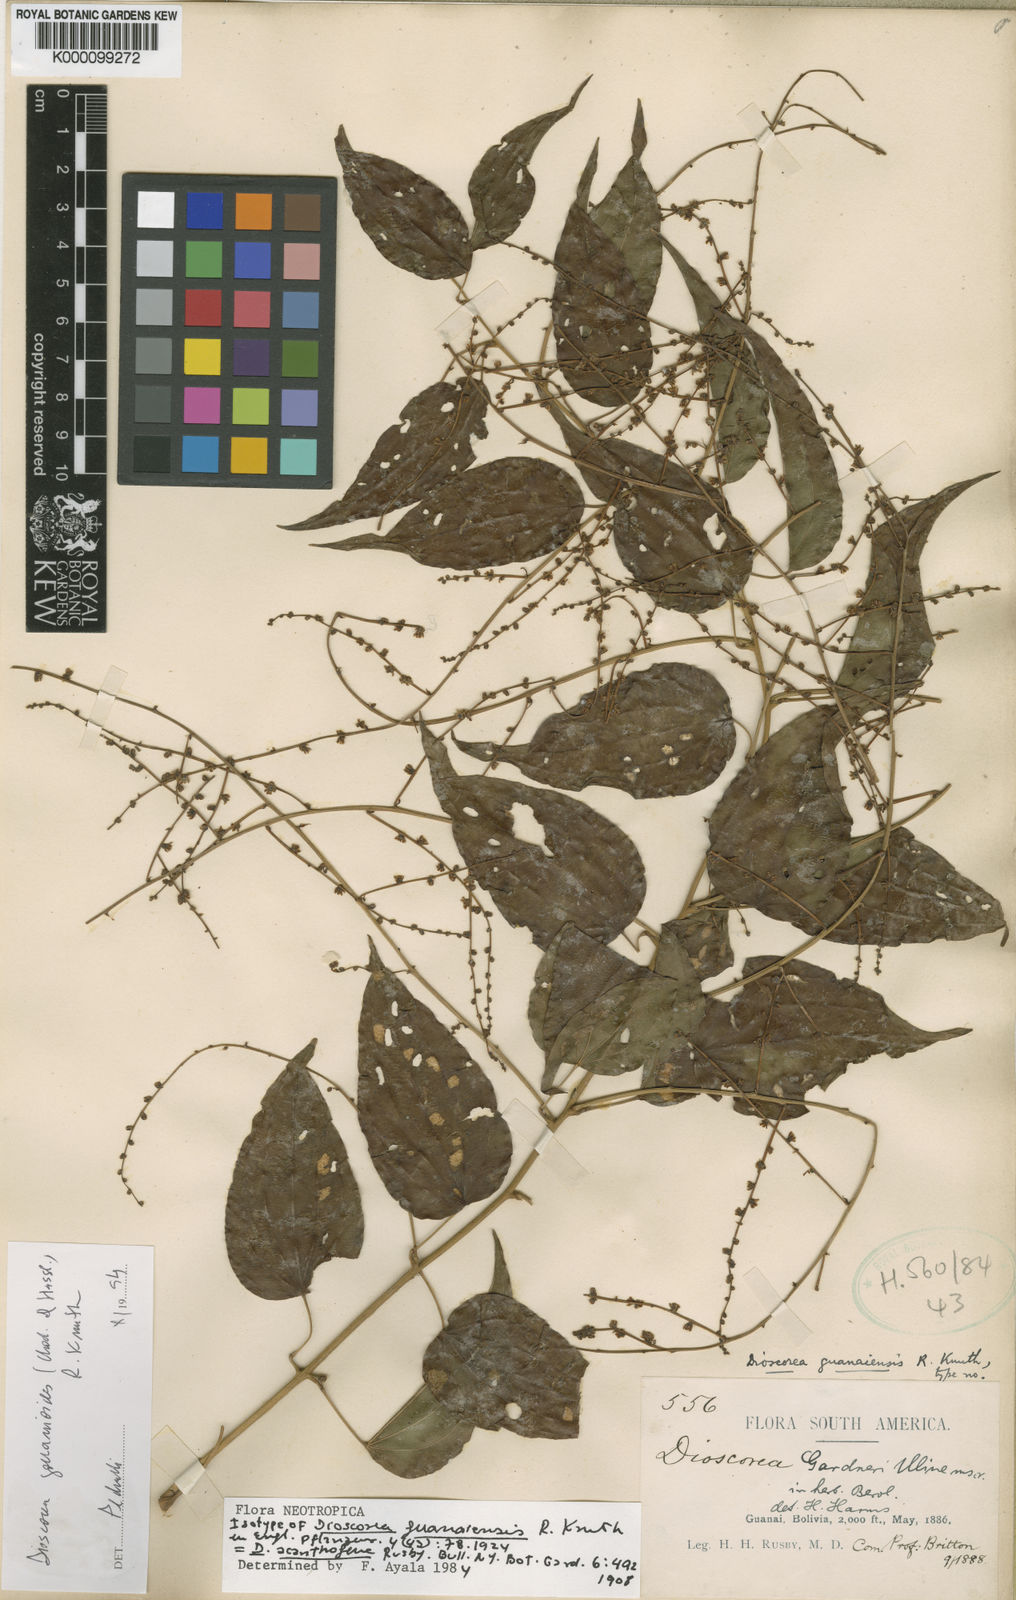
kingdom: Plantae
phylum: Tracheophyta
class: Liliopsida
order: Dioscoreales
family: Dioscoreaceae
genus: Dioscorea
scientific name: Dioscorea acanthogene
